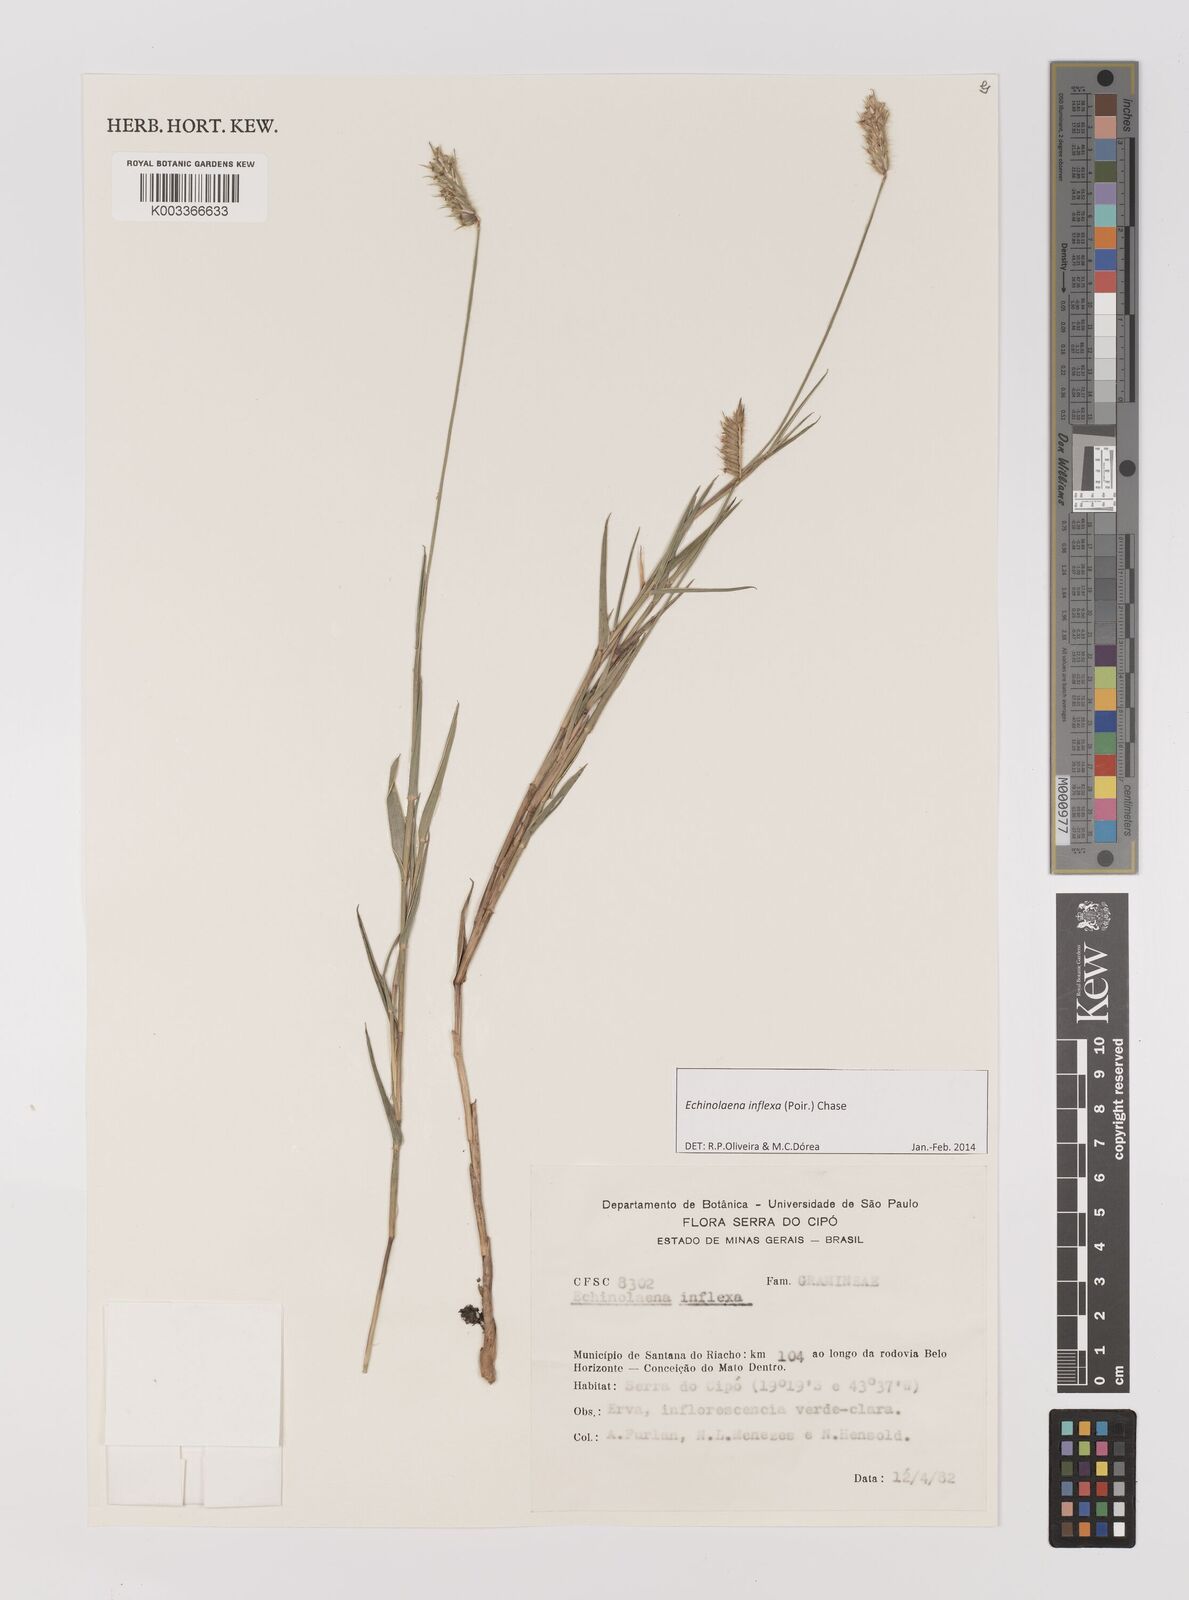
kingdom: Plantae
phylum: Tracheophyta
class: Liliopsida
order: Poales
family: Poaceae
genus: Echinolaena
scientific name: Echinolaena inflexa
